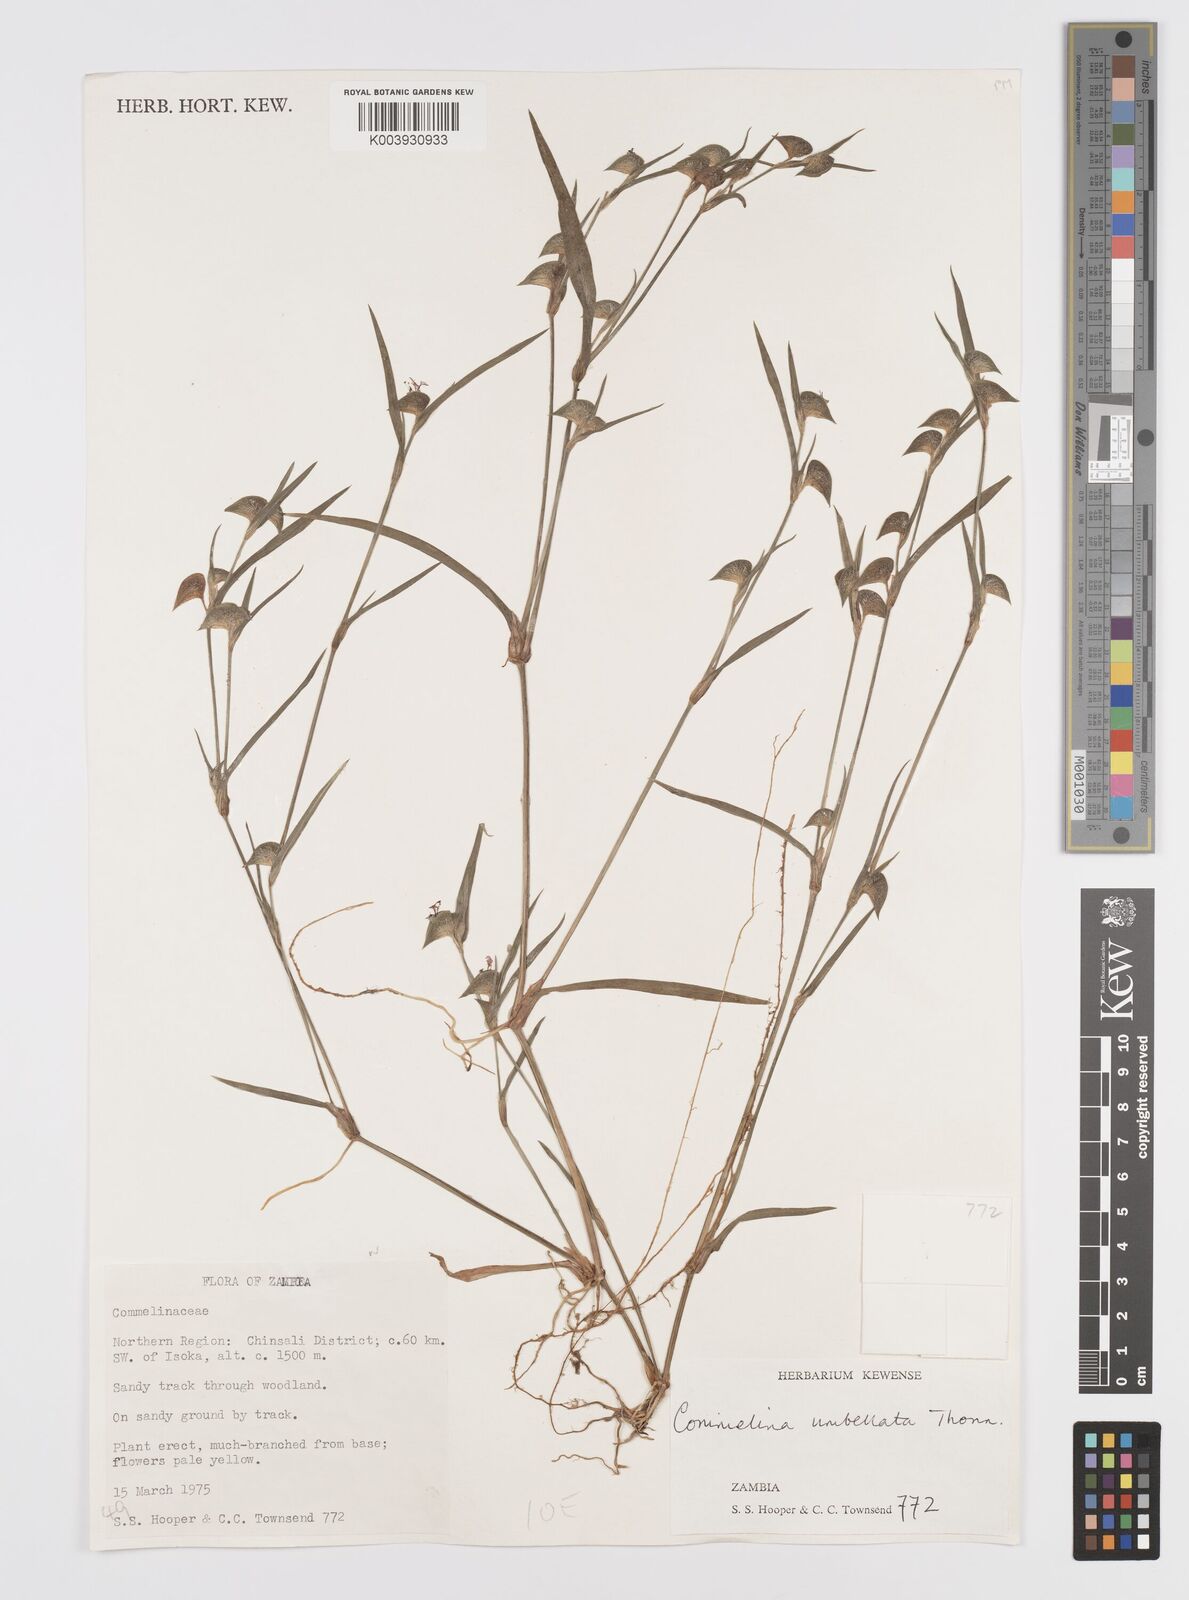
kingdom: Plantae
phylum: Tracheophyta
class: Liliopsida
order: Commelinales
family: Commelinaceae
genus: Commelina
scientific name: Commelina nigritana
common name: African dayflower
